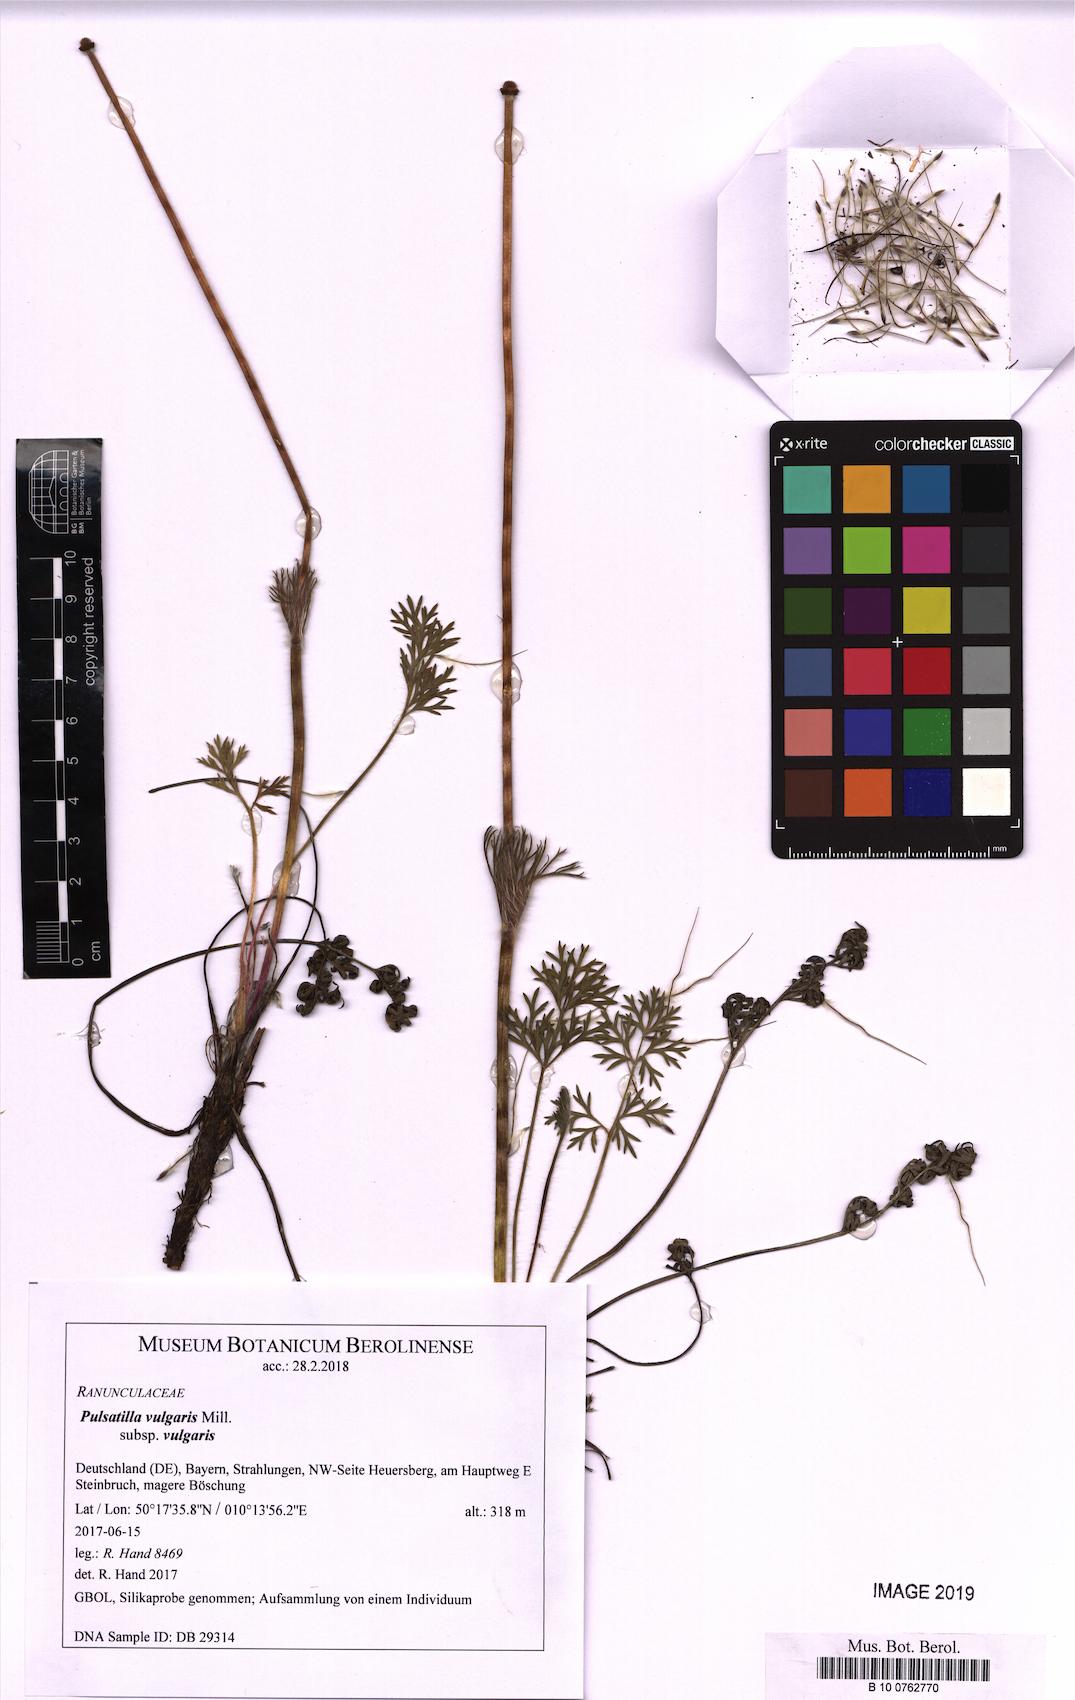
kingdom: Plantae
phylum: Tracheophyta
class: Magnoliopsida
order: Ranunculales
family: Ranunculaceae
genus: Pulsatilla
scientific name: Pulsatilla vulgaris
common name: Pasqueflower
